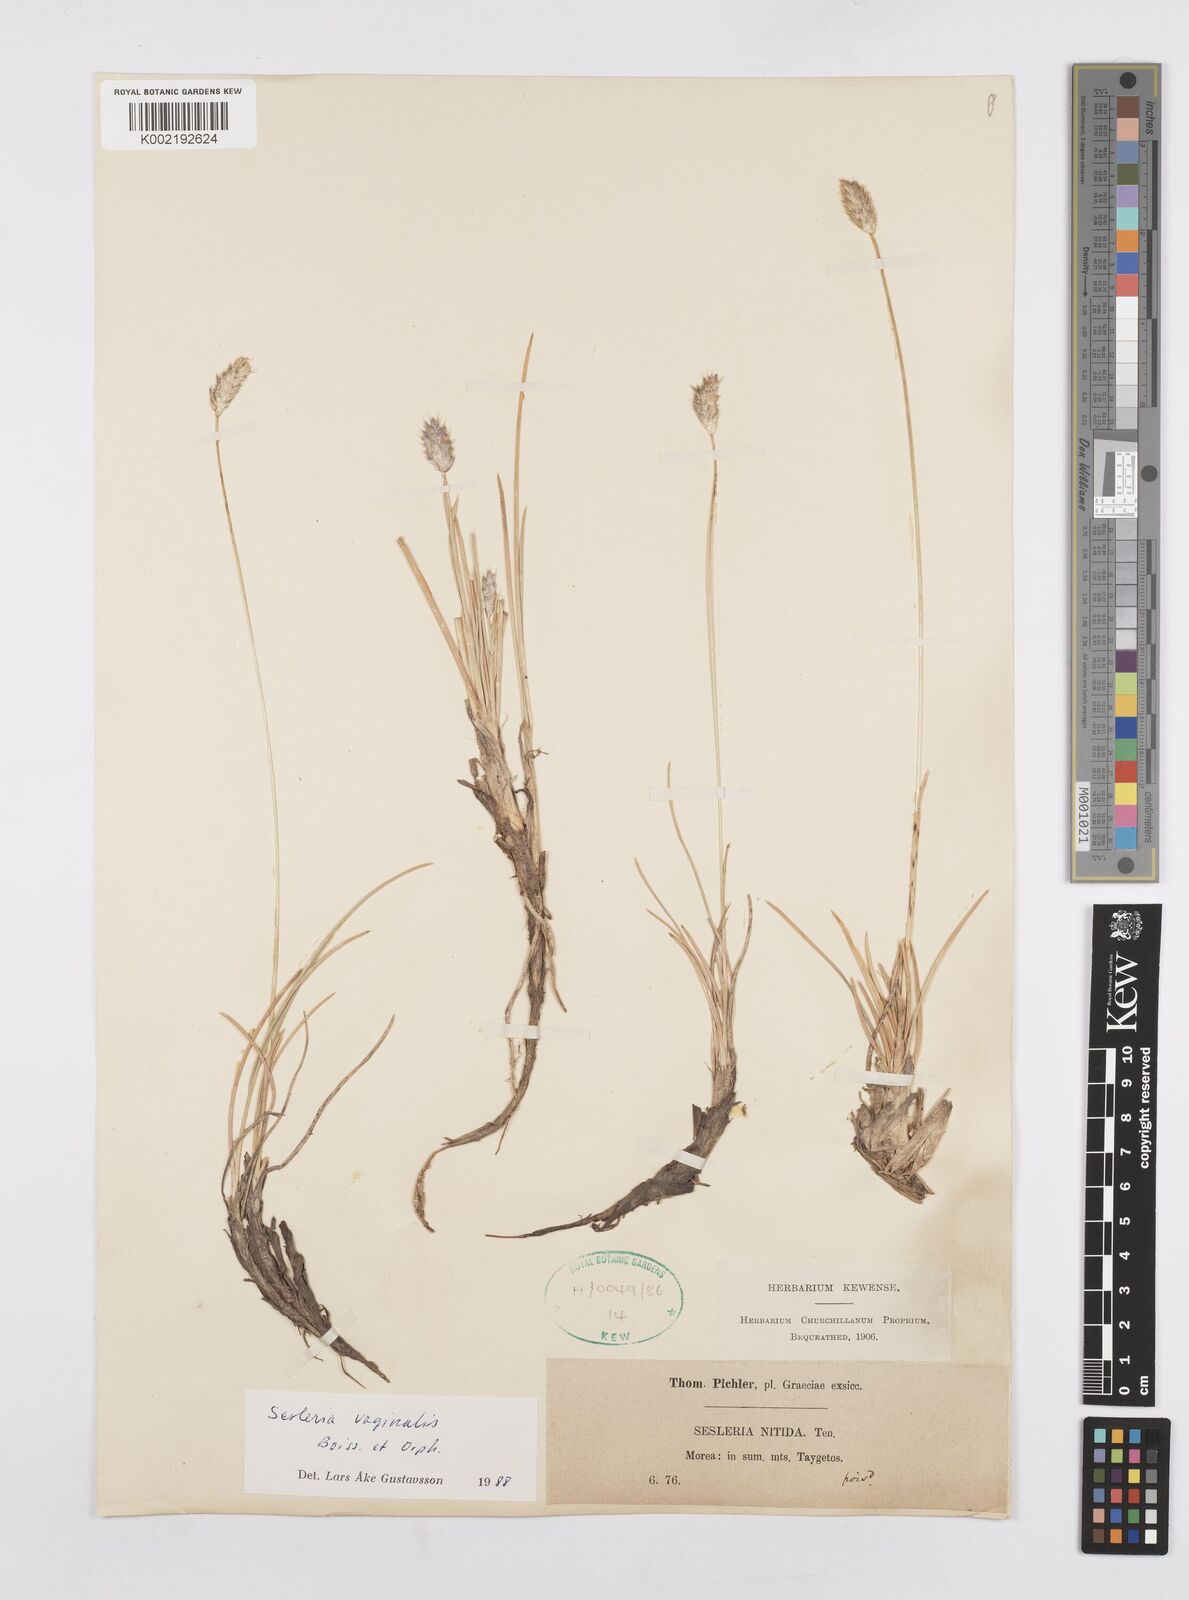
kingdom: Plantae
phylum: Tracheophyta
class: Liliopsida
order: Poales
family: Poaceae
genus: Sesleria
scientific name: Sesleria vaginalis
